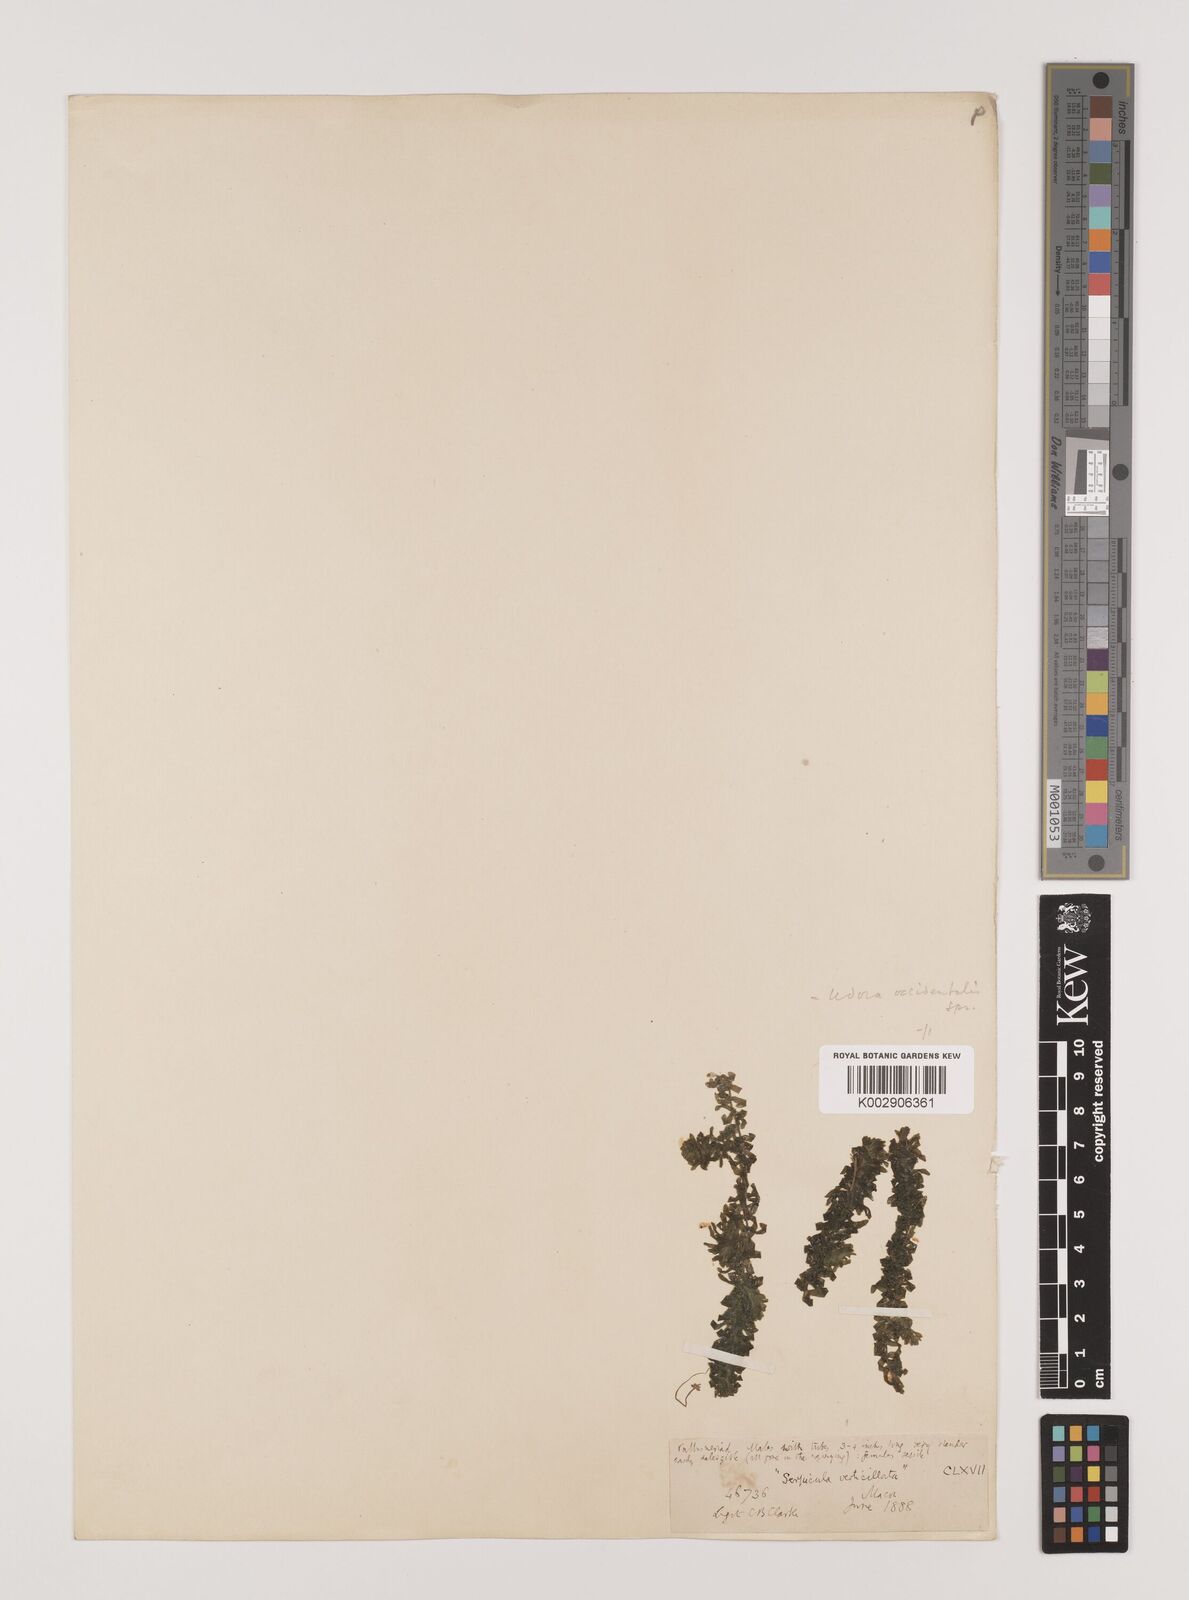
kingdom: Plantae
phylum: Tracheophyta
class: Liliopsida
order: Alismatales
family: Hydrocharitaceae
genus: Elodea
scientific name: Elodea canadensis
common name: Canadian waterweed
